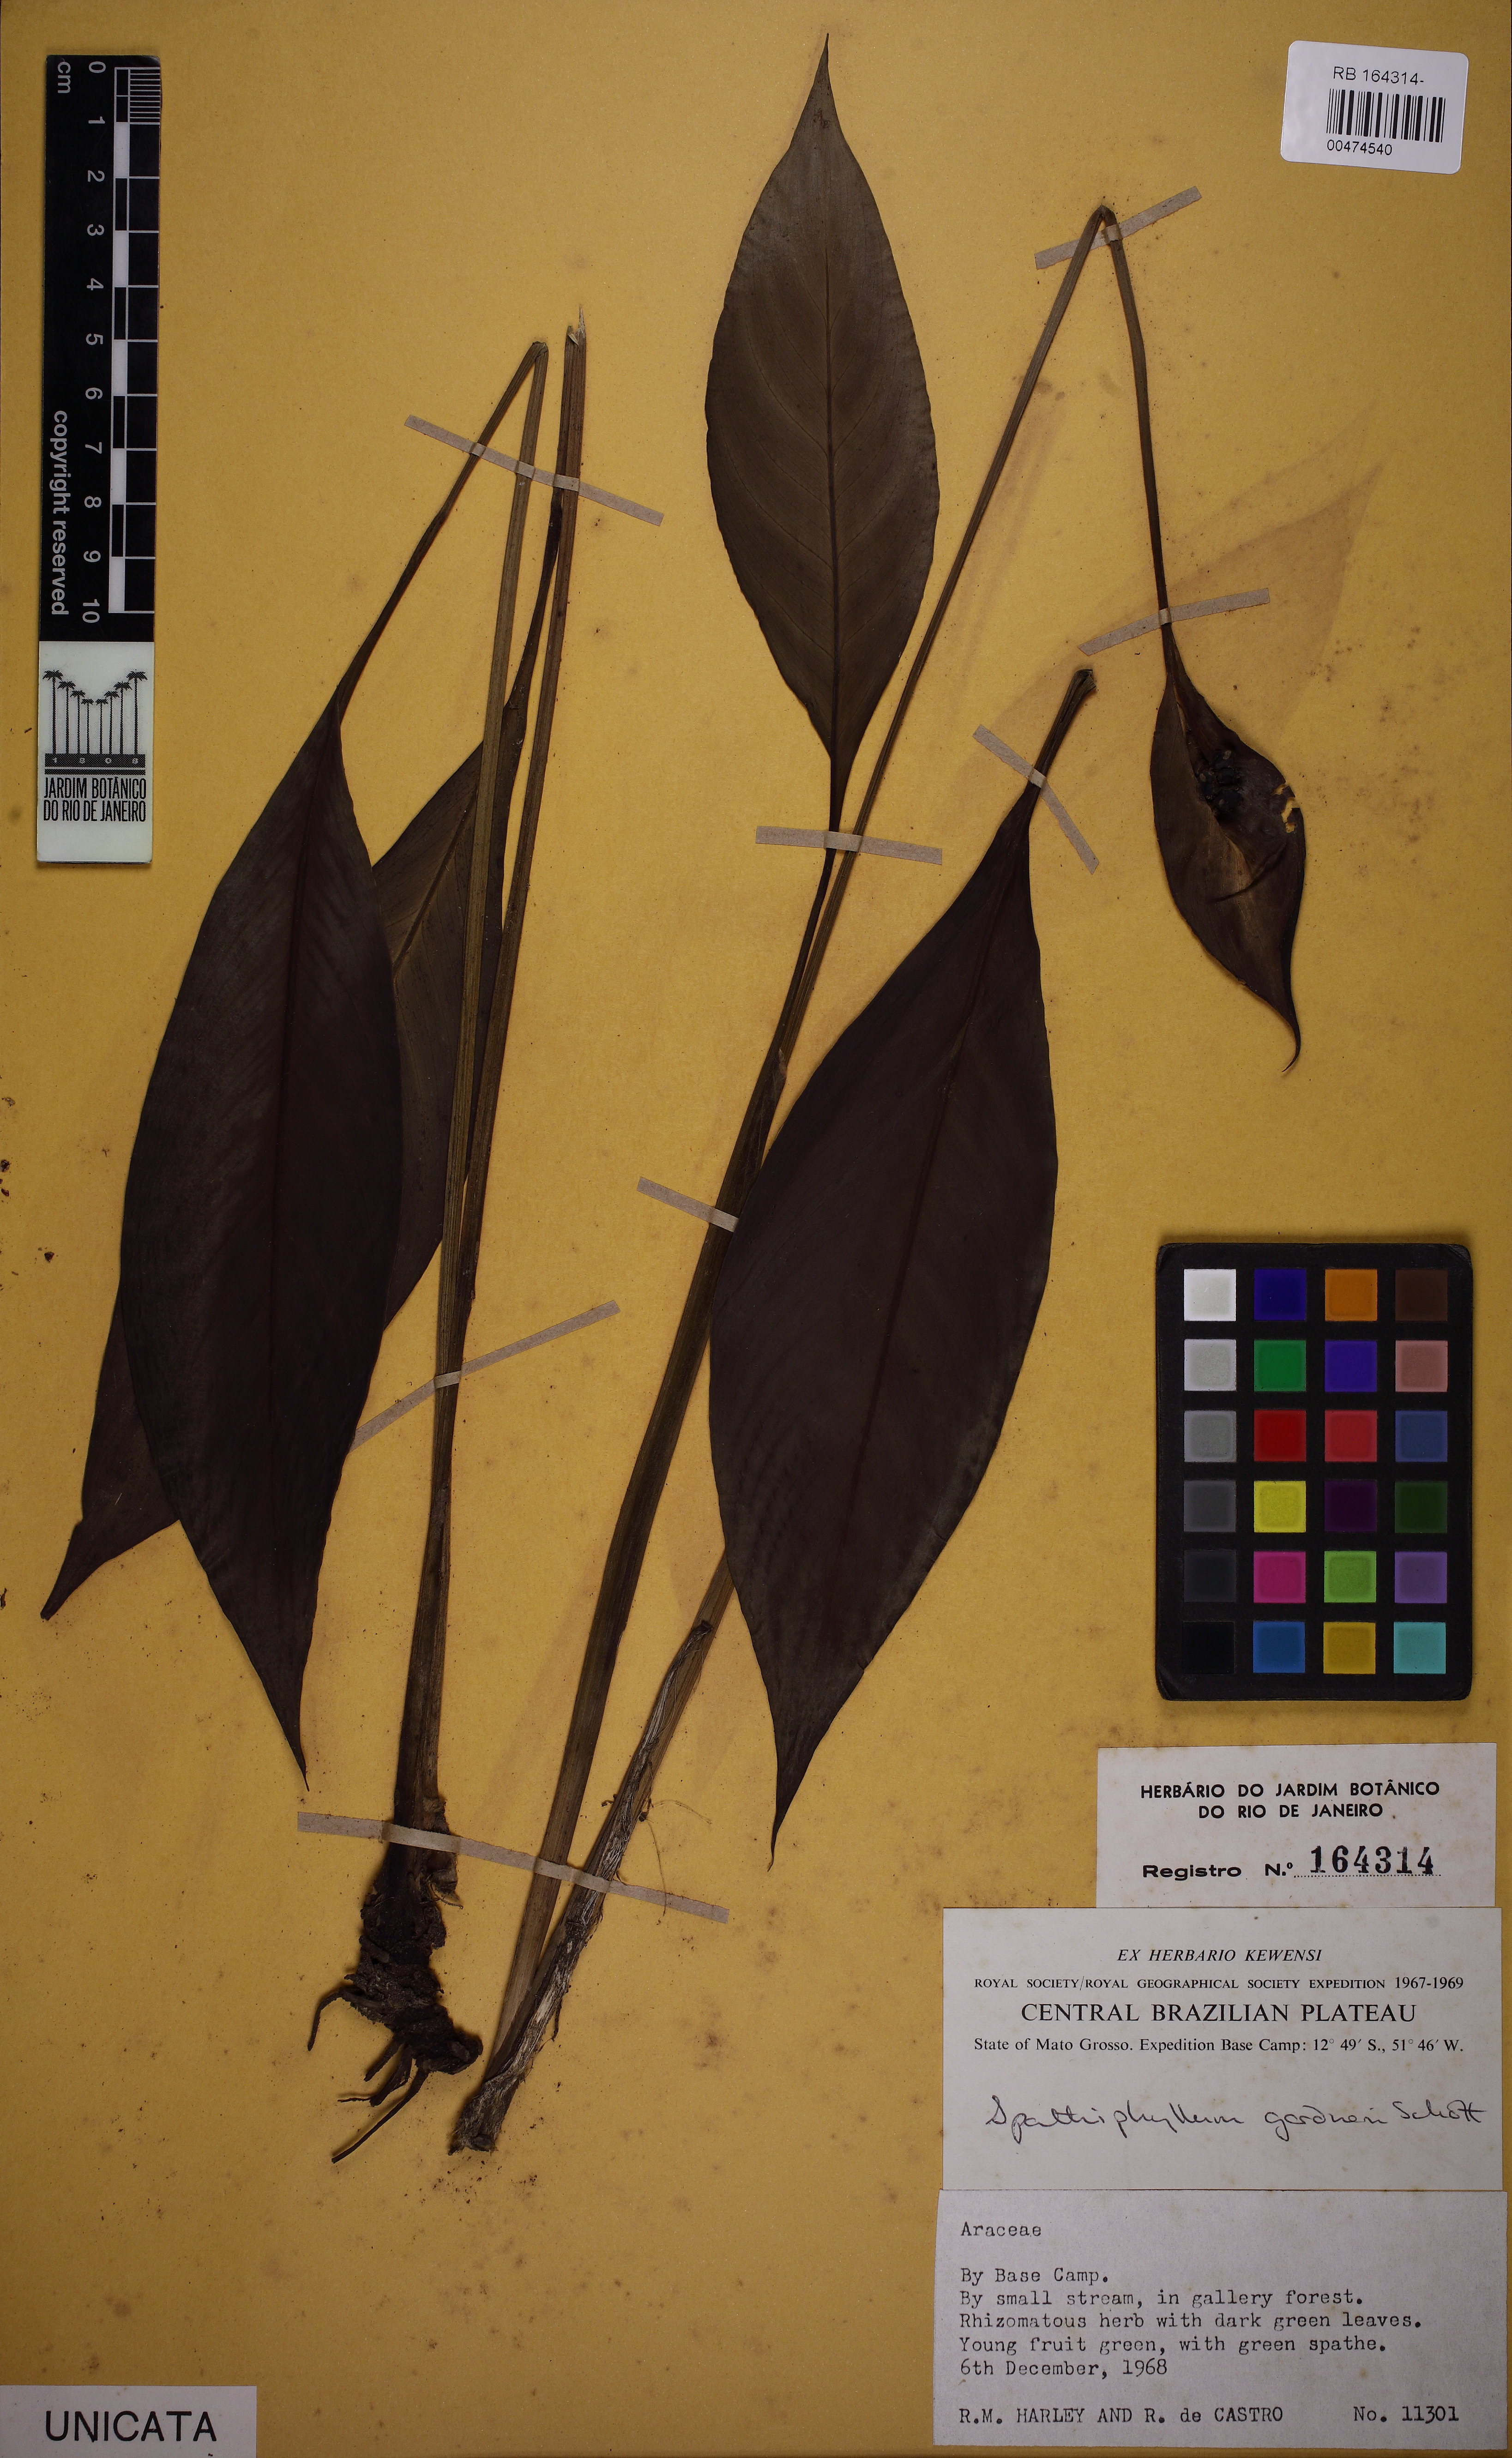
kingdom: Plantae
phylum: Tracheophyta
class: Liliopsida
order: Alismatales
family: Araceae
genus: Spathiphyllum
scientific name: Spathiphyllum gardneri
